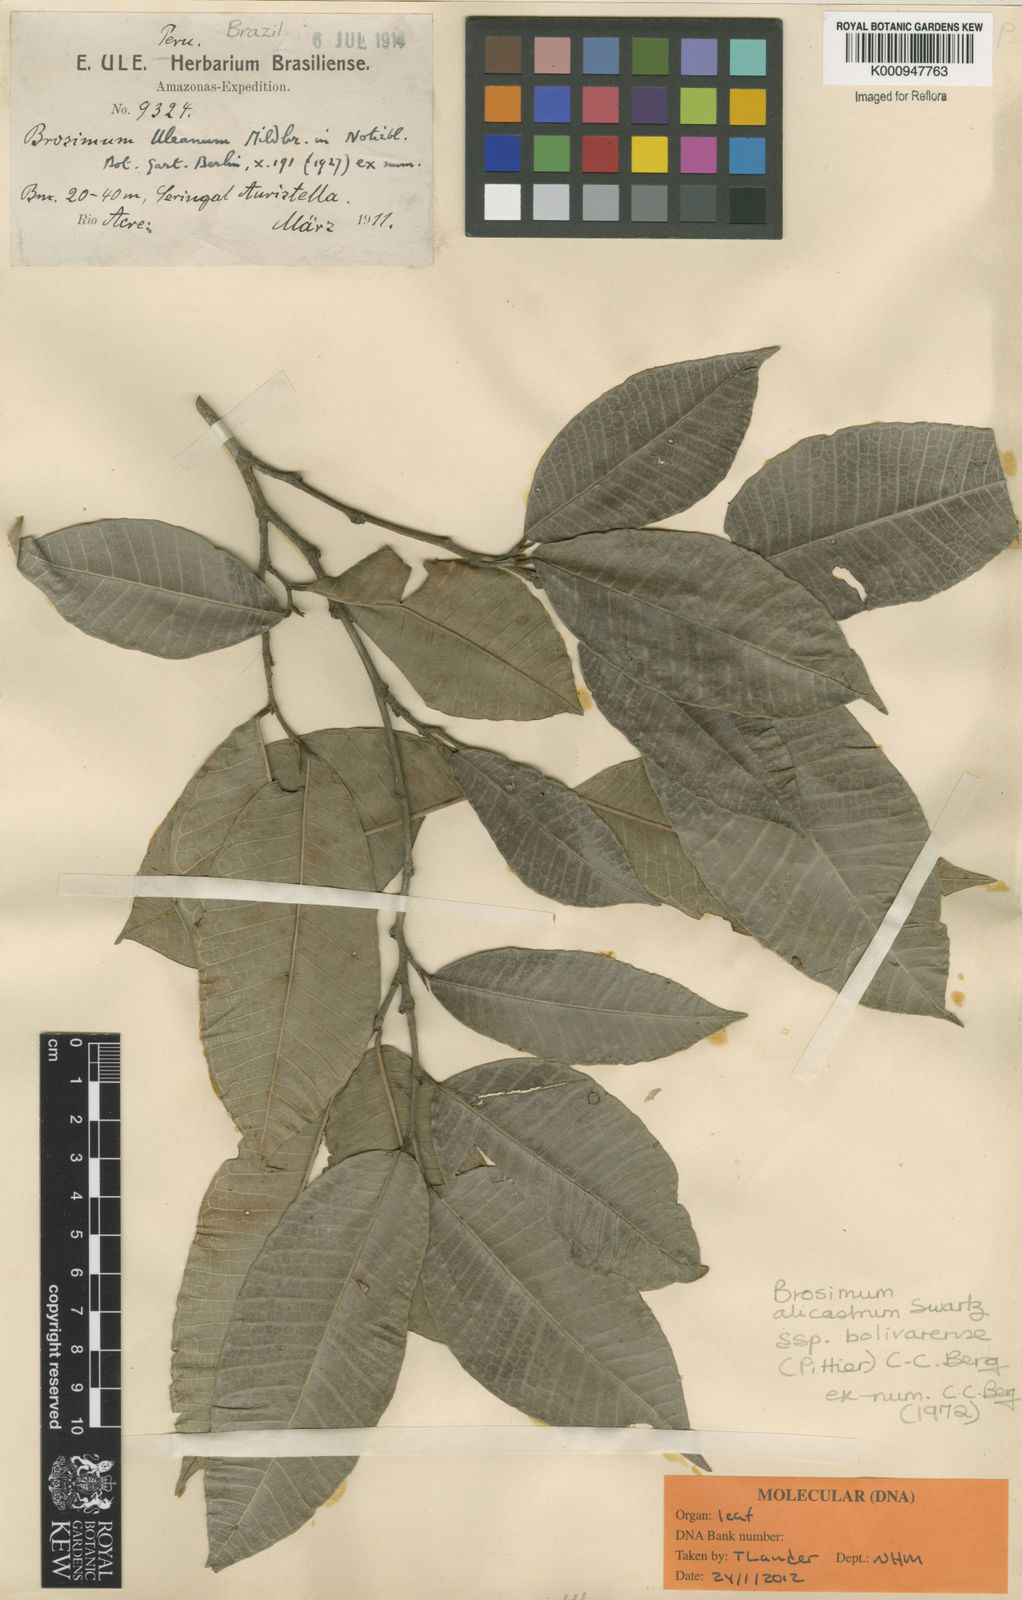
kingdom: Plantae
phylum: Tracheophyta
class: Magnoliopsida
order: Rosales
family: Moraceae
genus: Brosimum
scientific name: Brosimum alicastrum
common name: Breadnut
